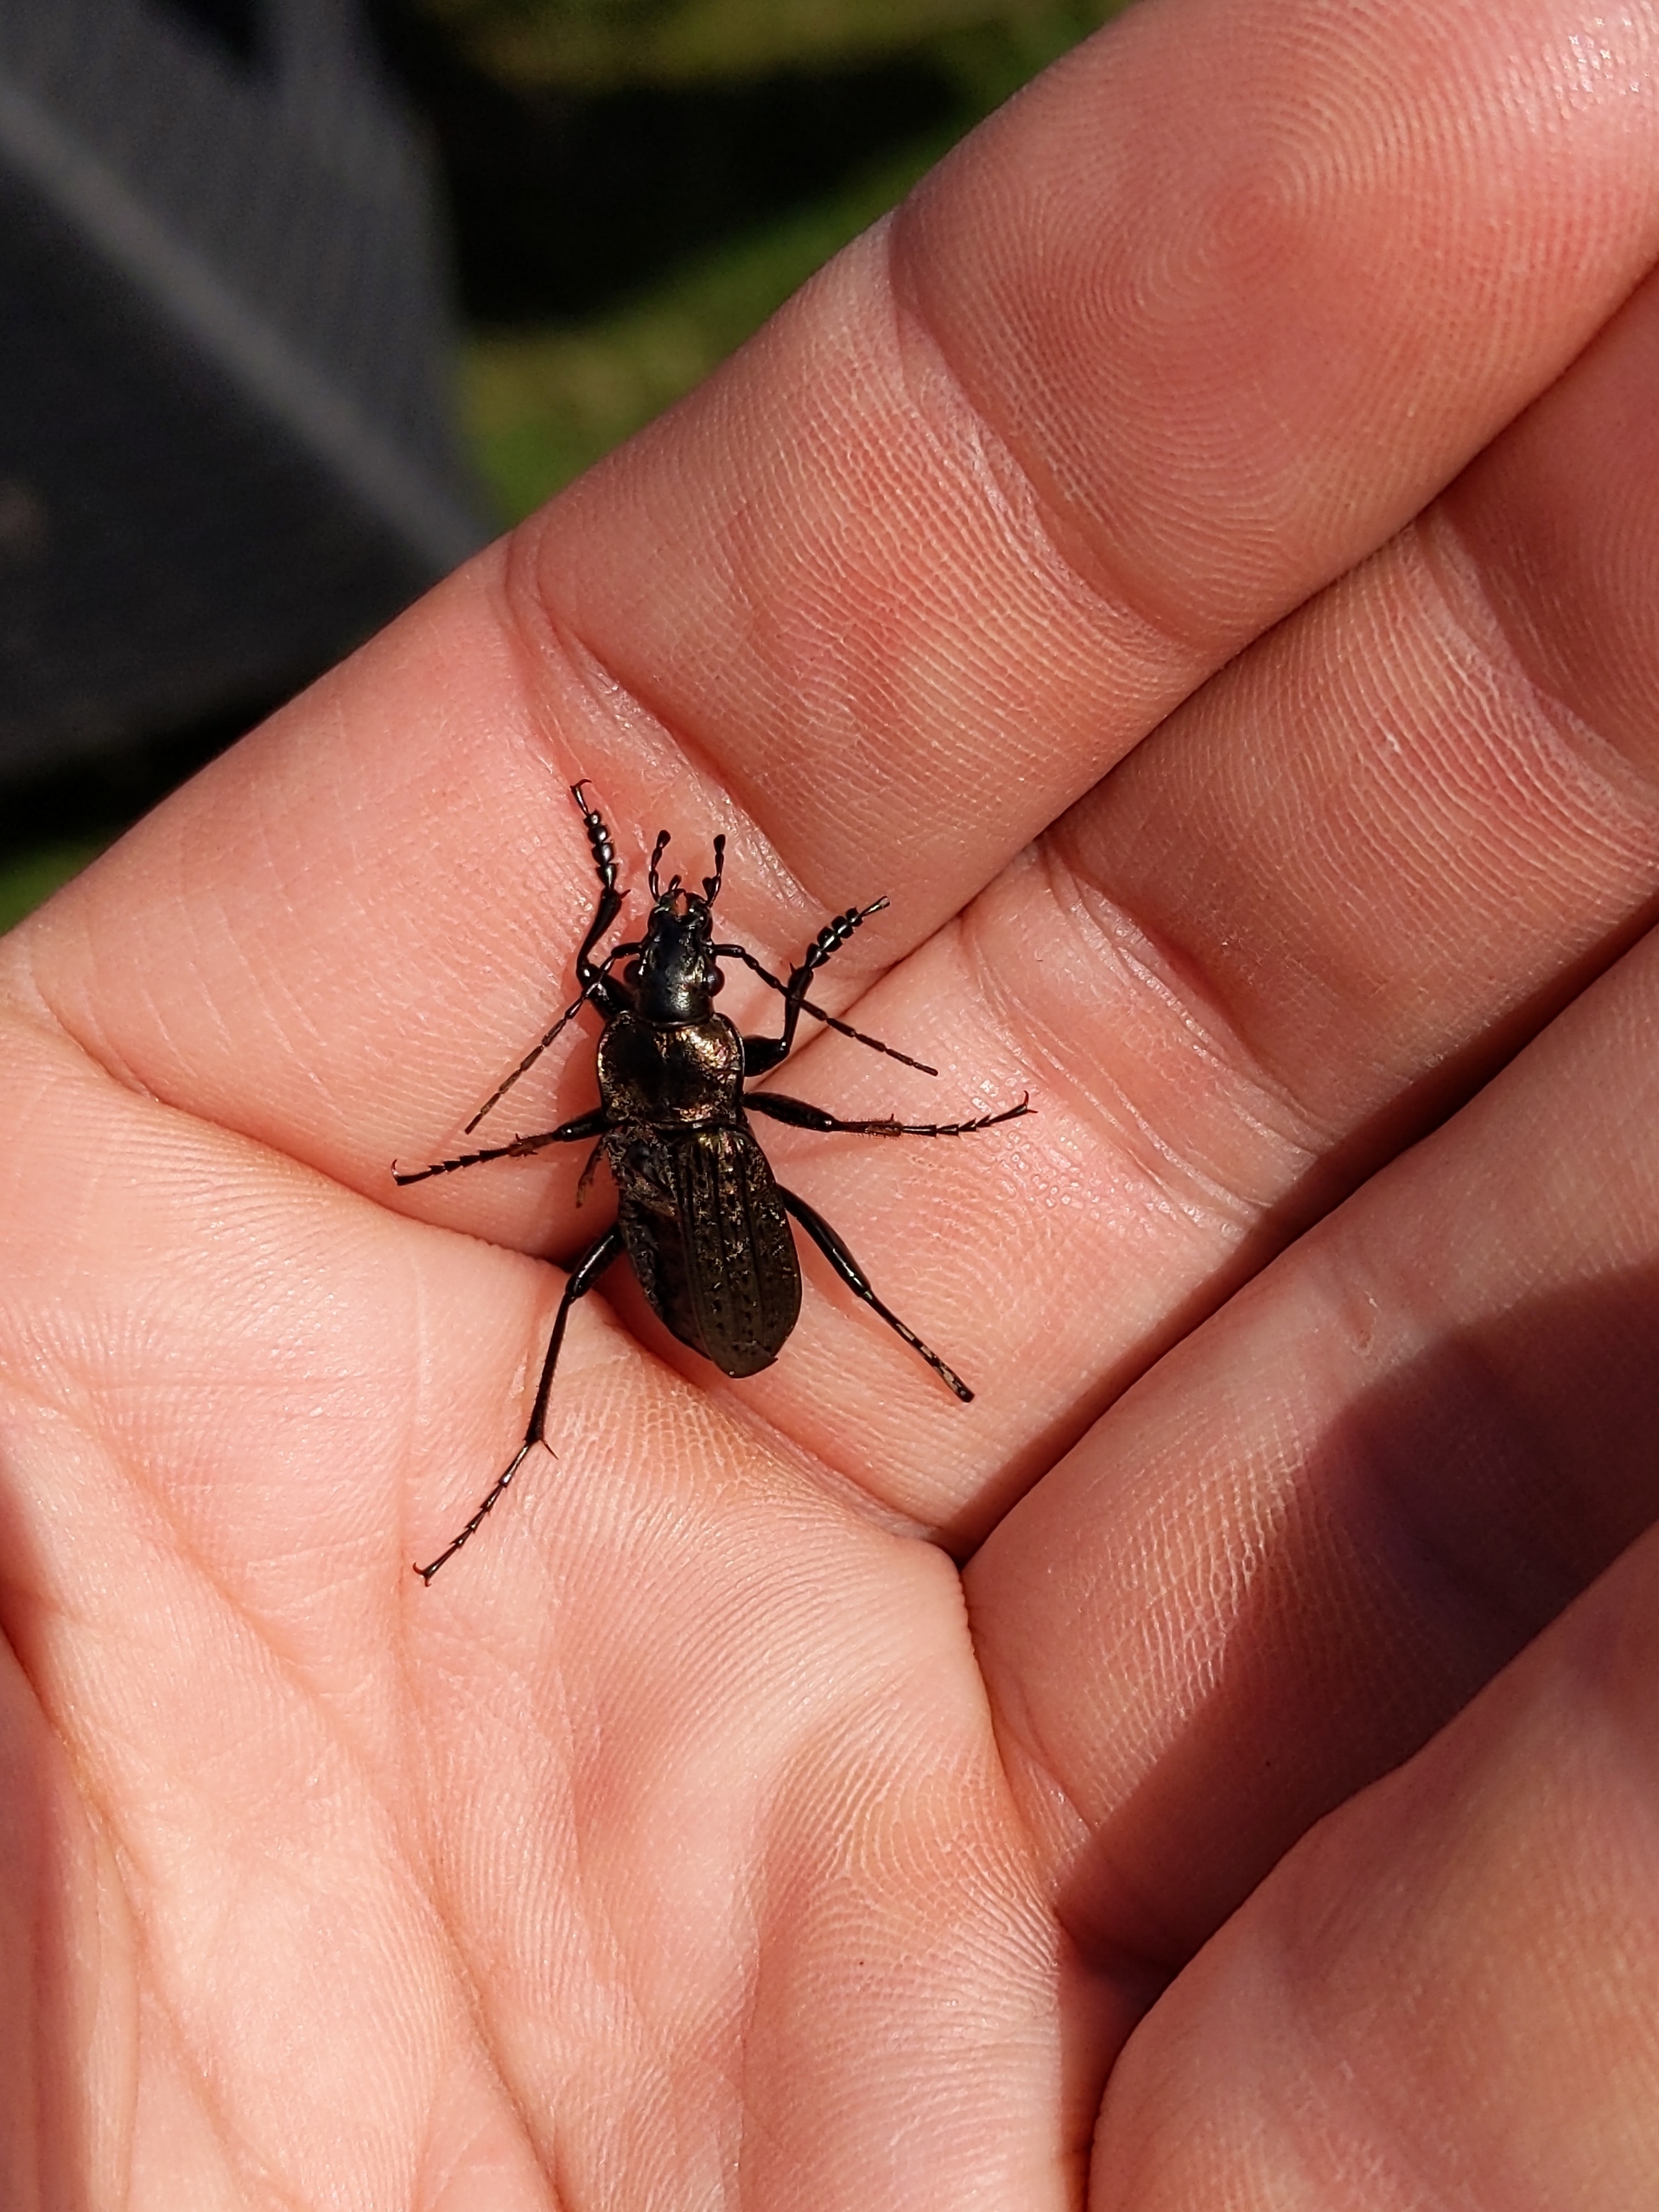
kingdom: Animalia
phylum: Arthropoda
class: Insecta
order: Coleoptera
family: Carabidae
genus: Carabus
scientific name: Carabus granulatus
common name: Kornet løber
